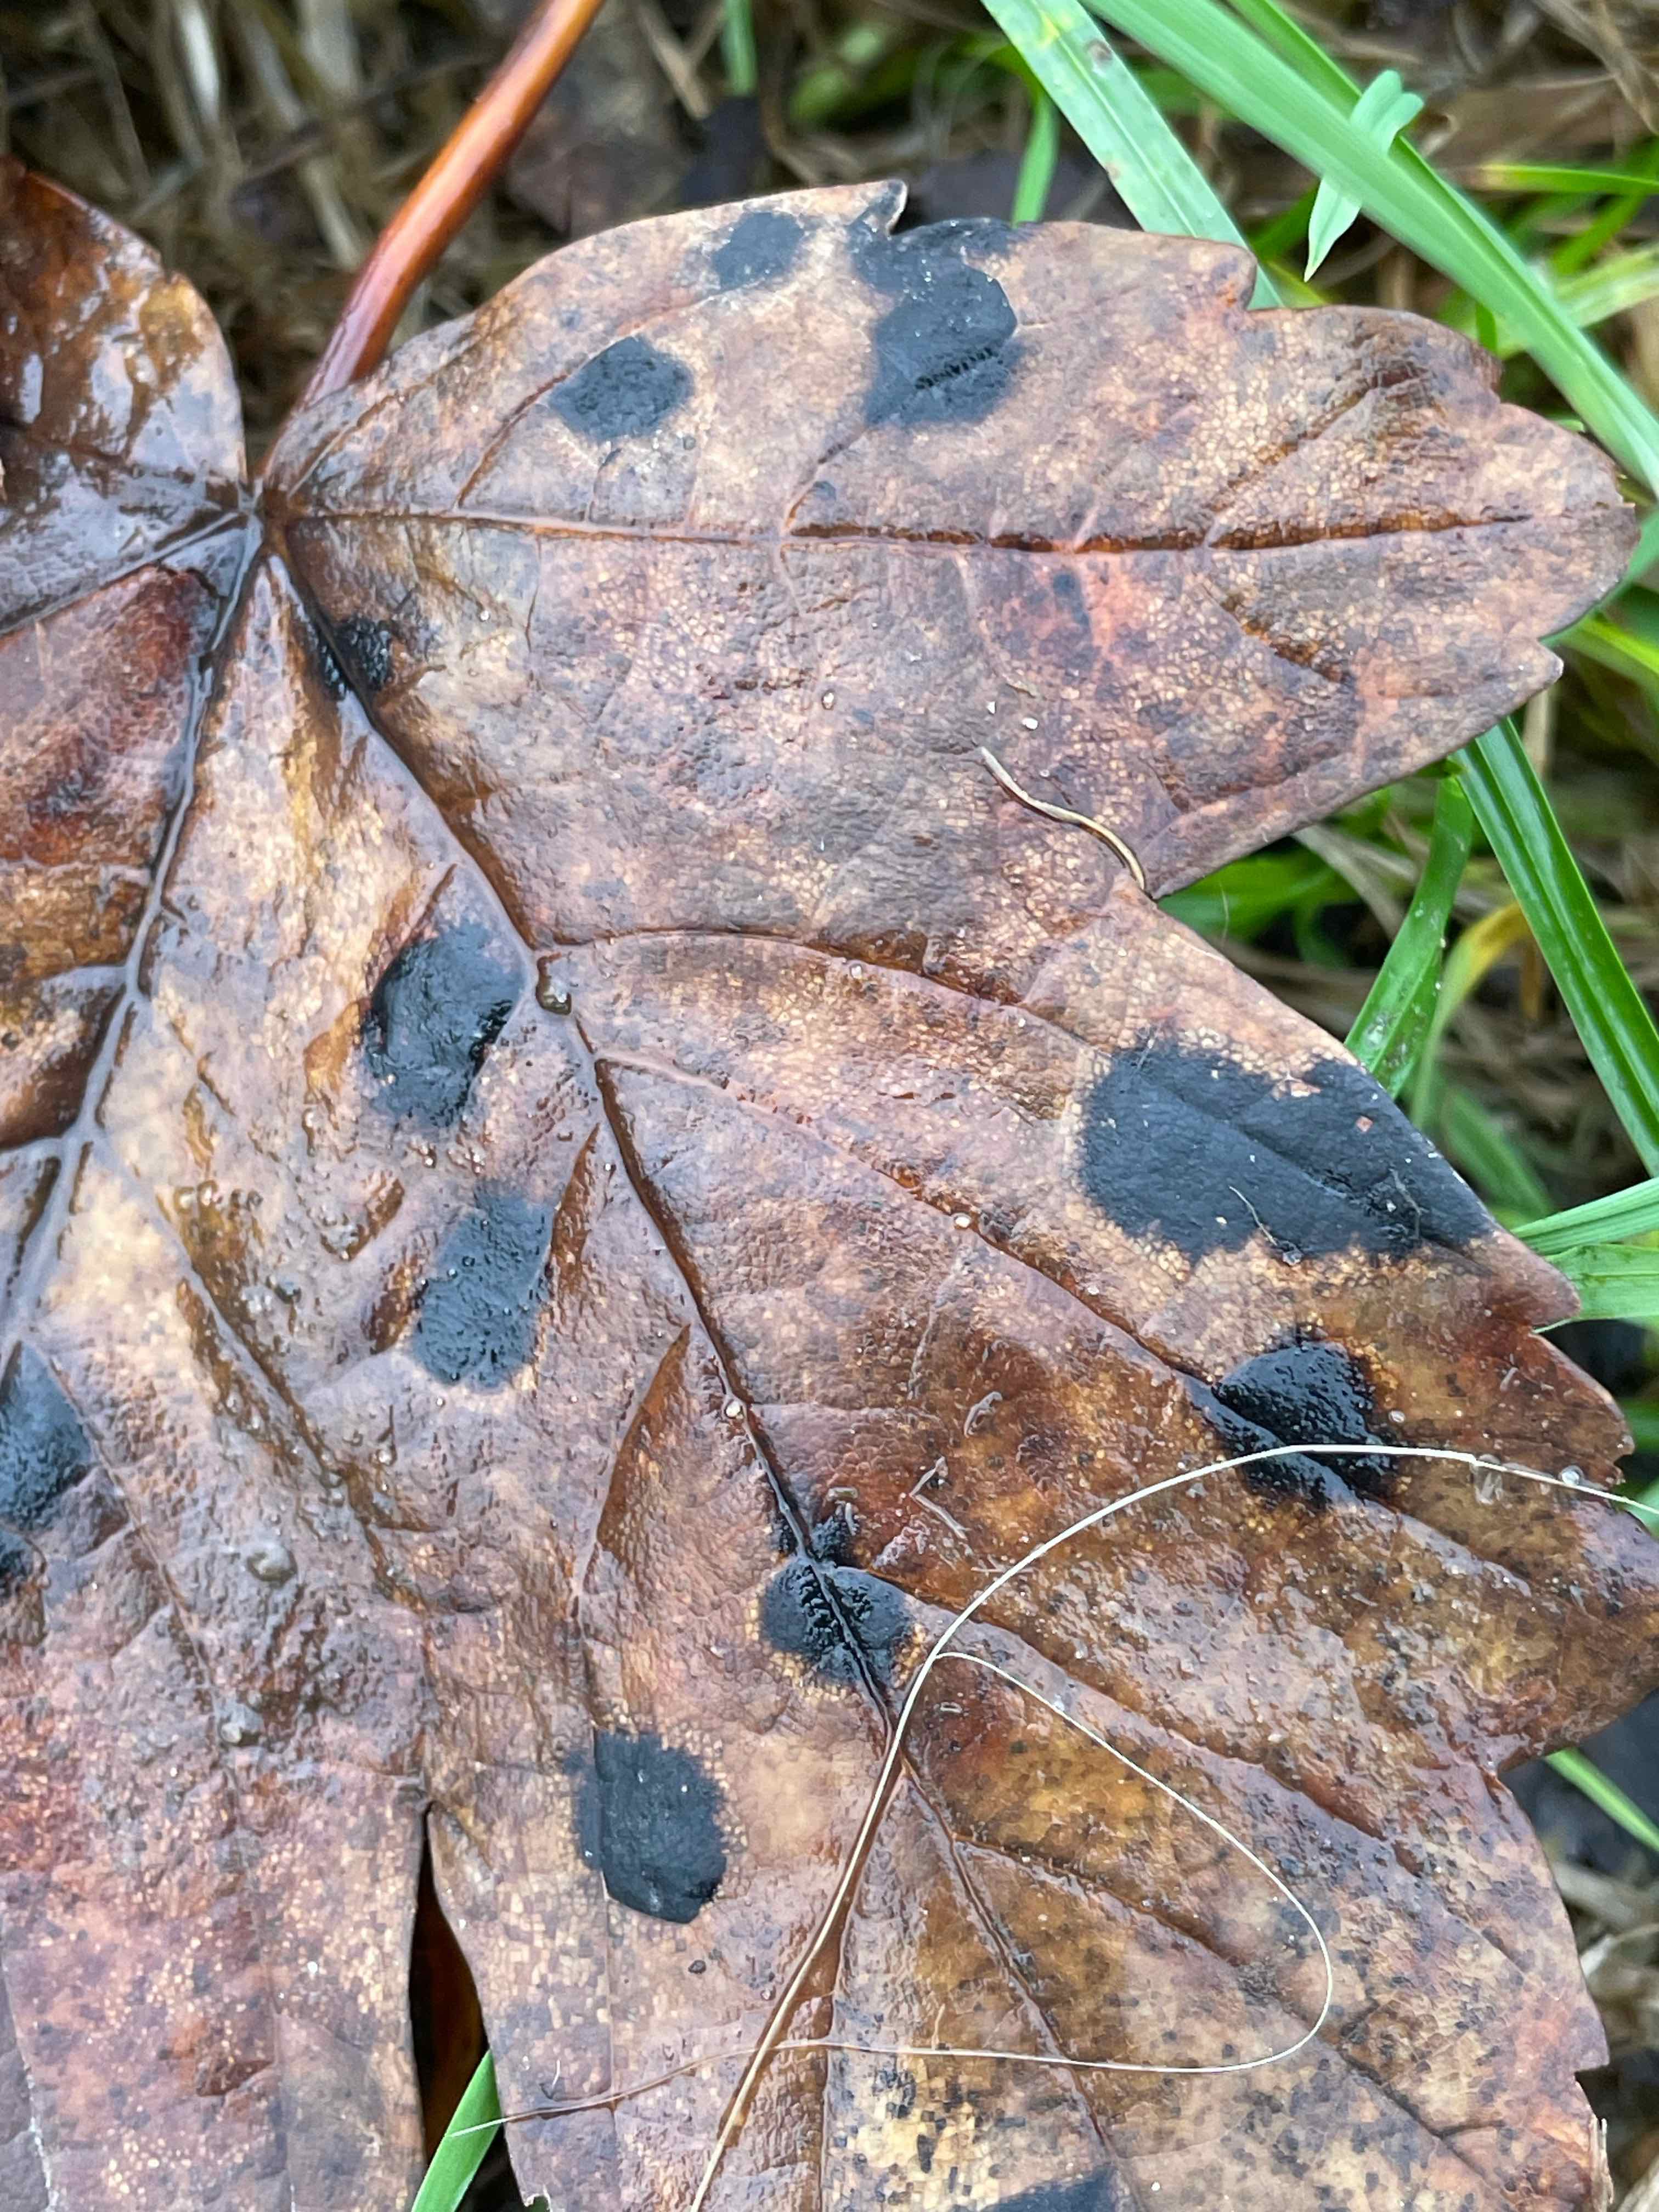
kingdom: Fungi
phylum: Ascomycota
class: Leotiomycetes
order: Rhytismatales
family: Rhytismataceae
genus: Rhytisma
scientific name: Rhytisma acerinum
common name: ahorn-rynkeplet
